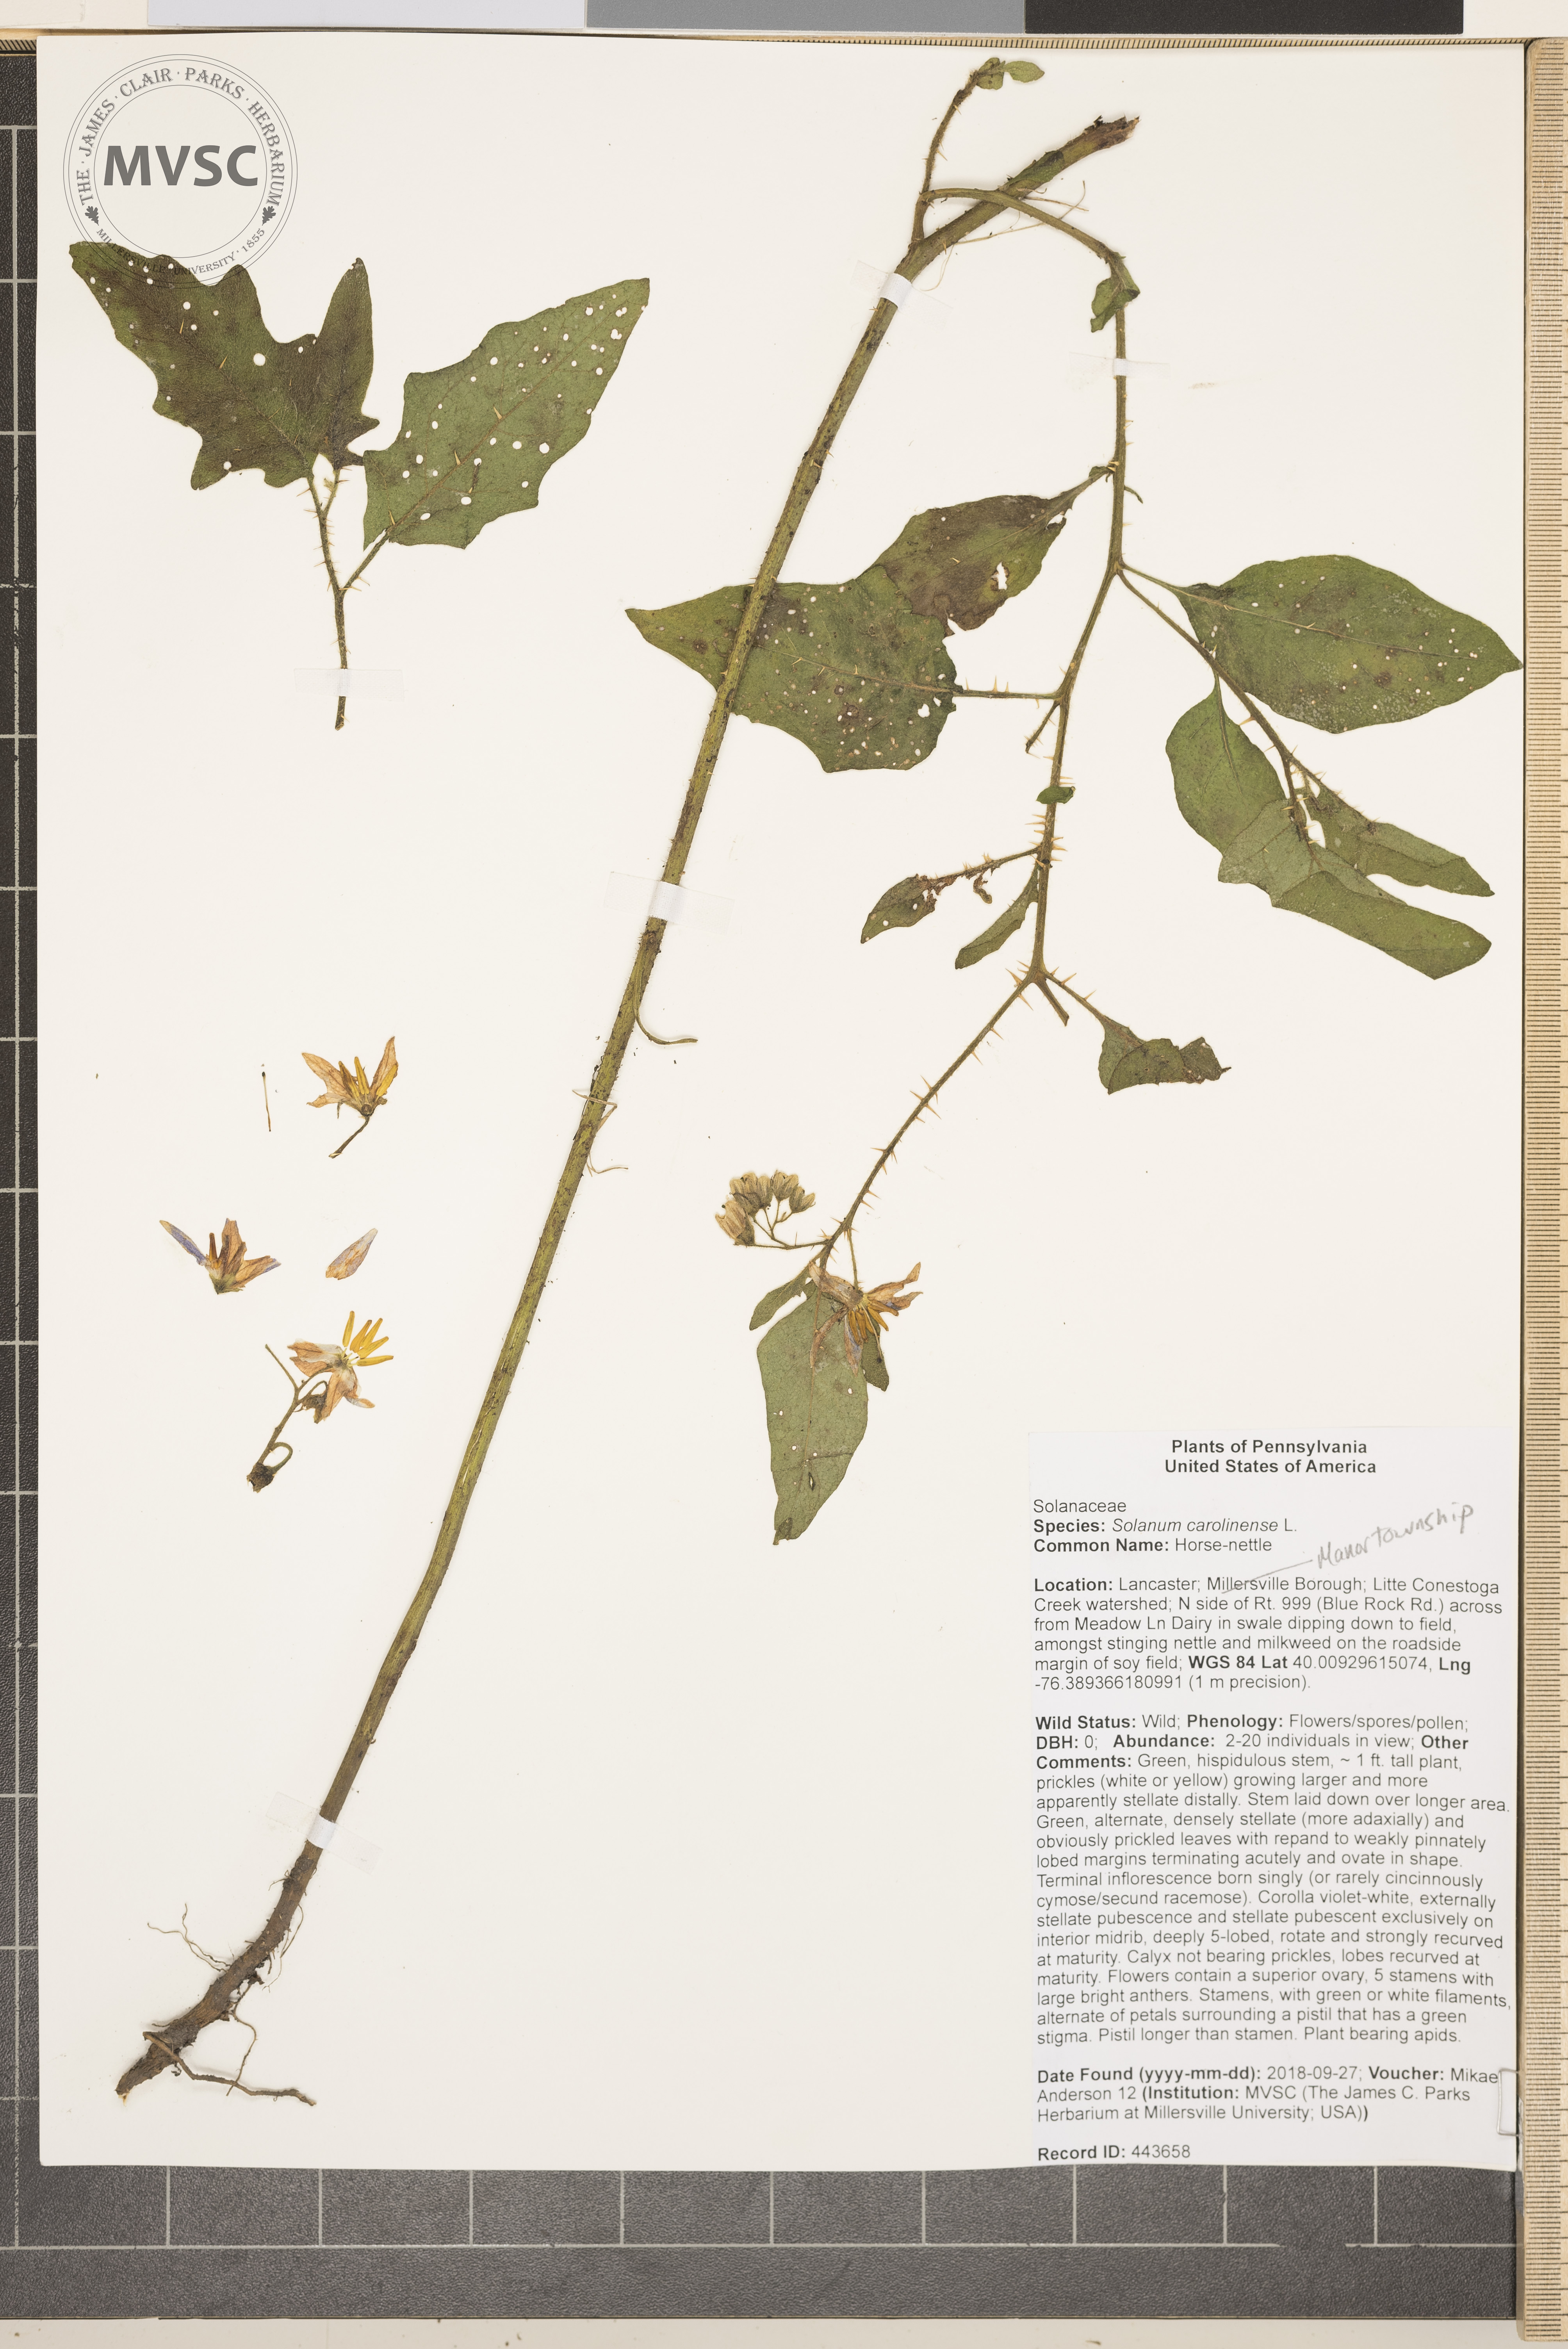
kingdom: Plantae
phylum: Tracheophyta
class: Magnoliopsida
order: Solanales
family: Solanaceae
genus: Solanum
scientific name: Solanum carolinense
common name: Horse-nettle
